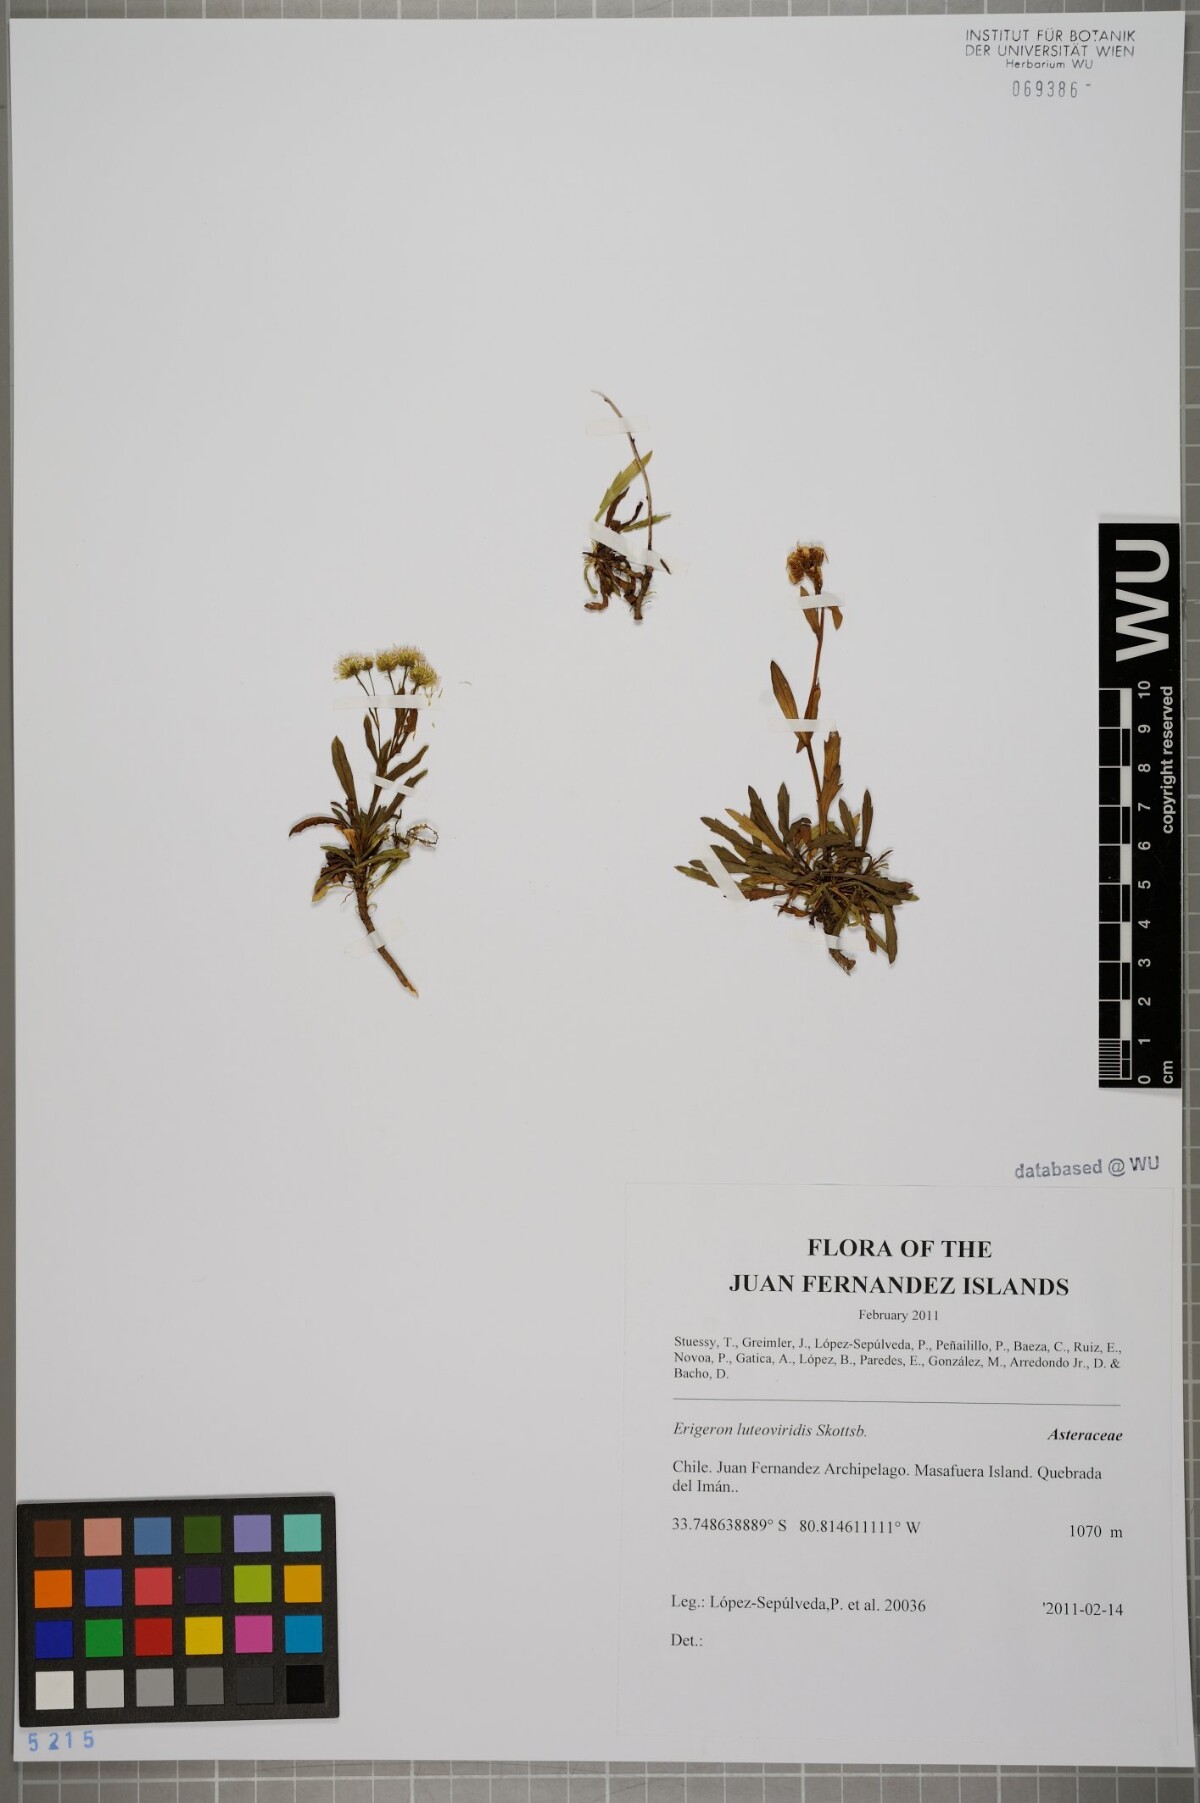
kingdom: Plantae
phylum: Tracheophyta
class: Magnoliopsida
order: Asterales
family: Asteraceae
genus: Erigeron
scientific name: Erigeron luteoviridis
